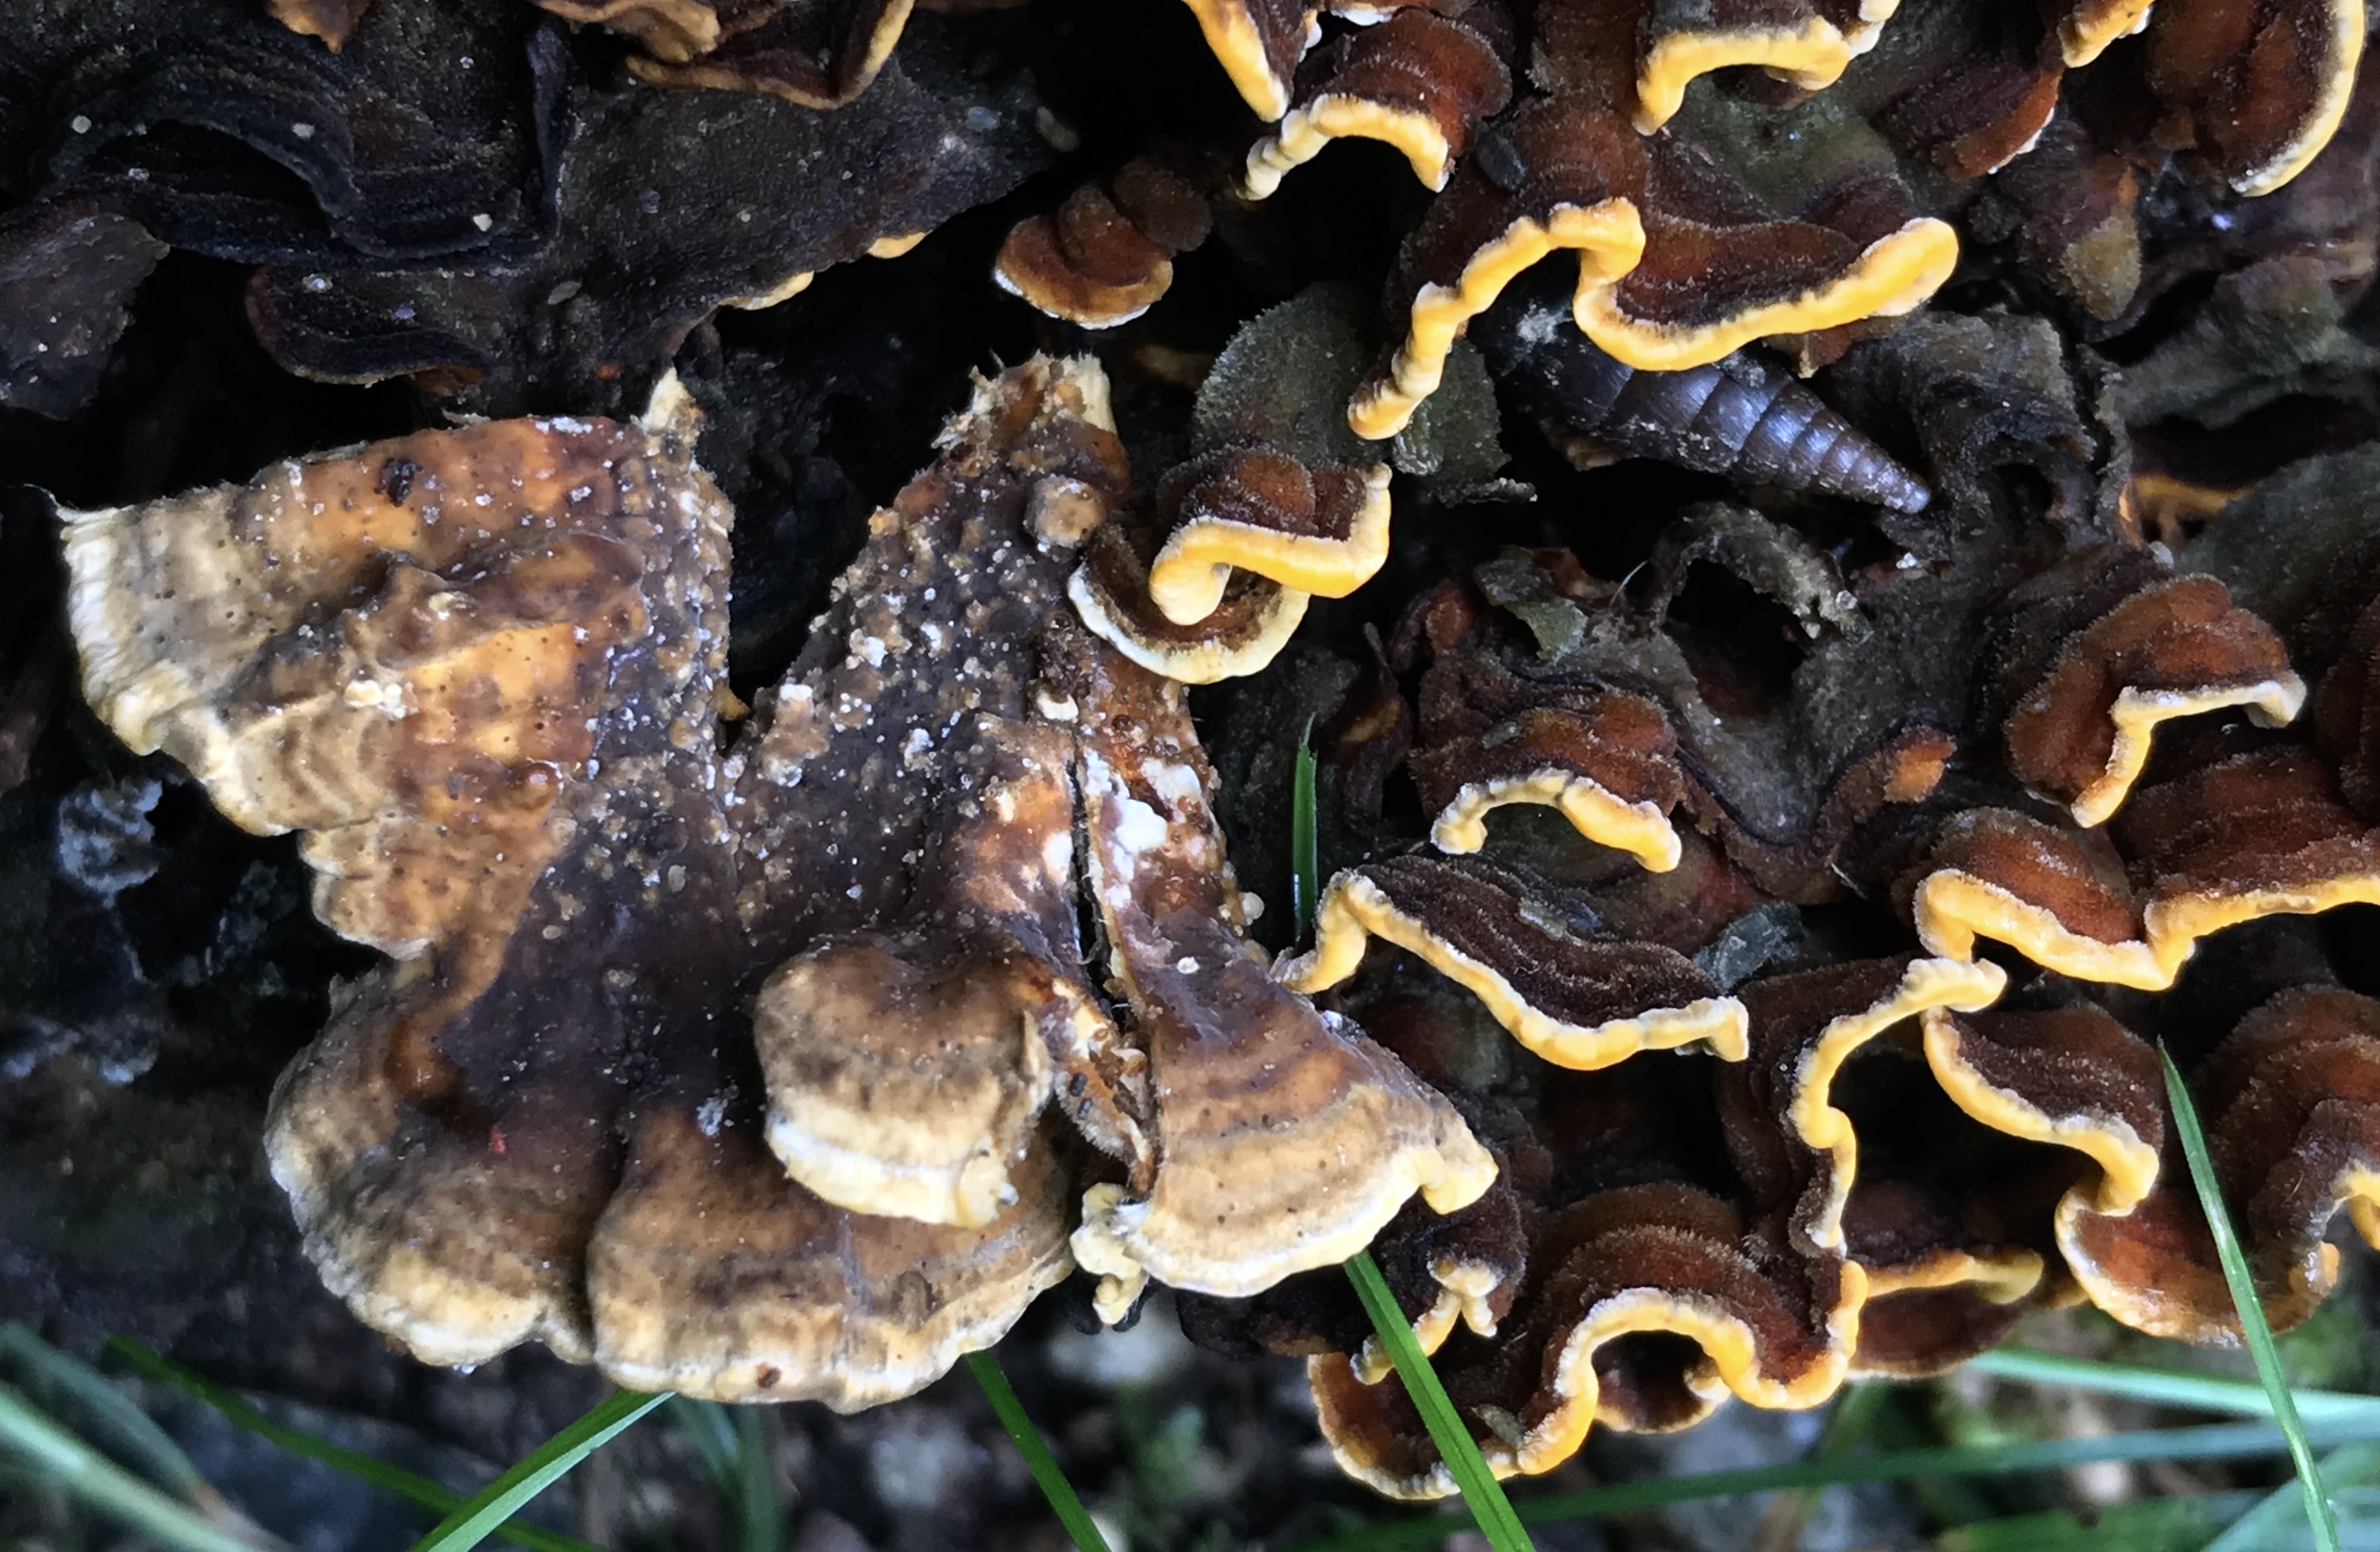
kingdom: Fungi
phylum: Basidiomycota
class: Agaricomycetes
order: Russulales
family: Stereaceae
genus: Stereum
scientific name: Stereum hirsutum
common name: håret lædersvamp
